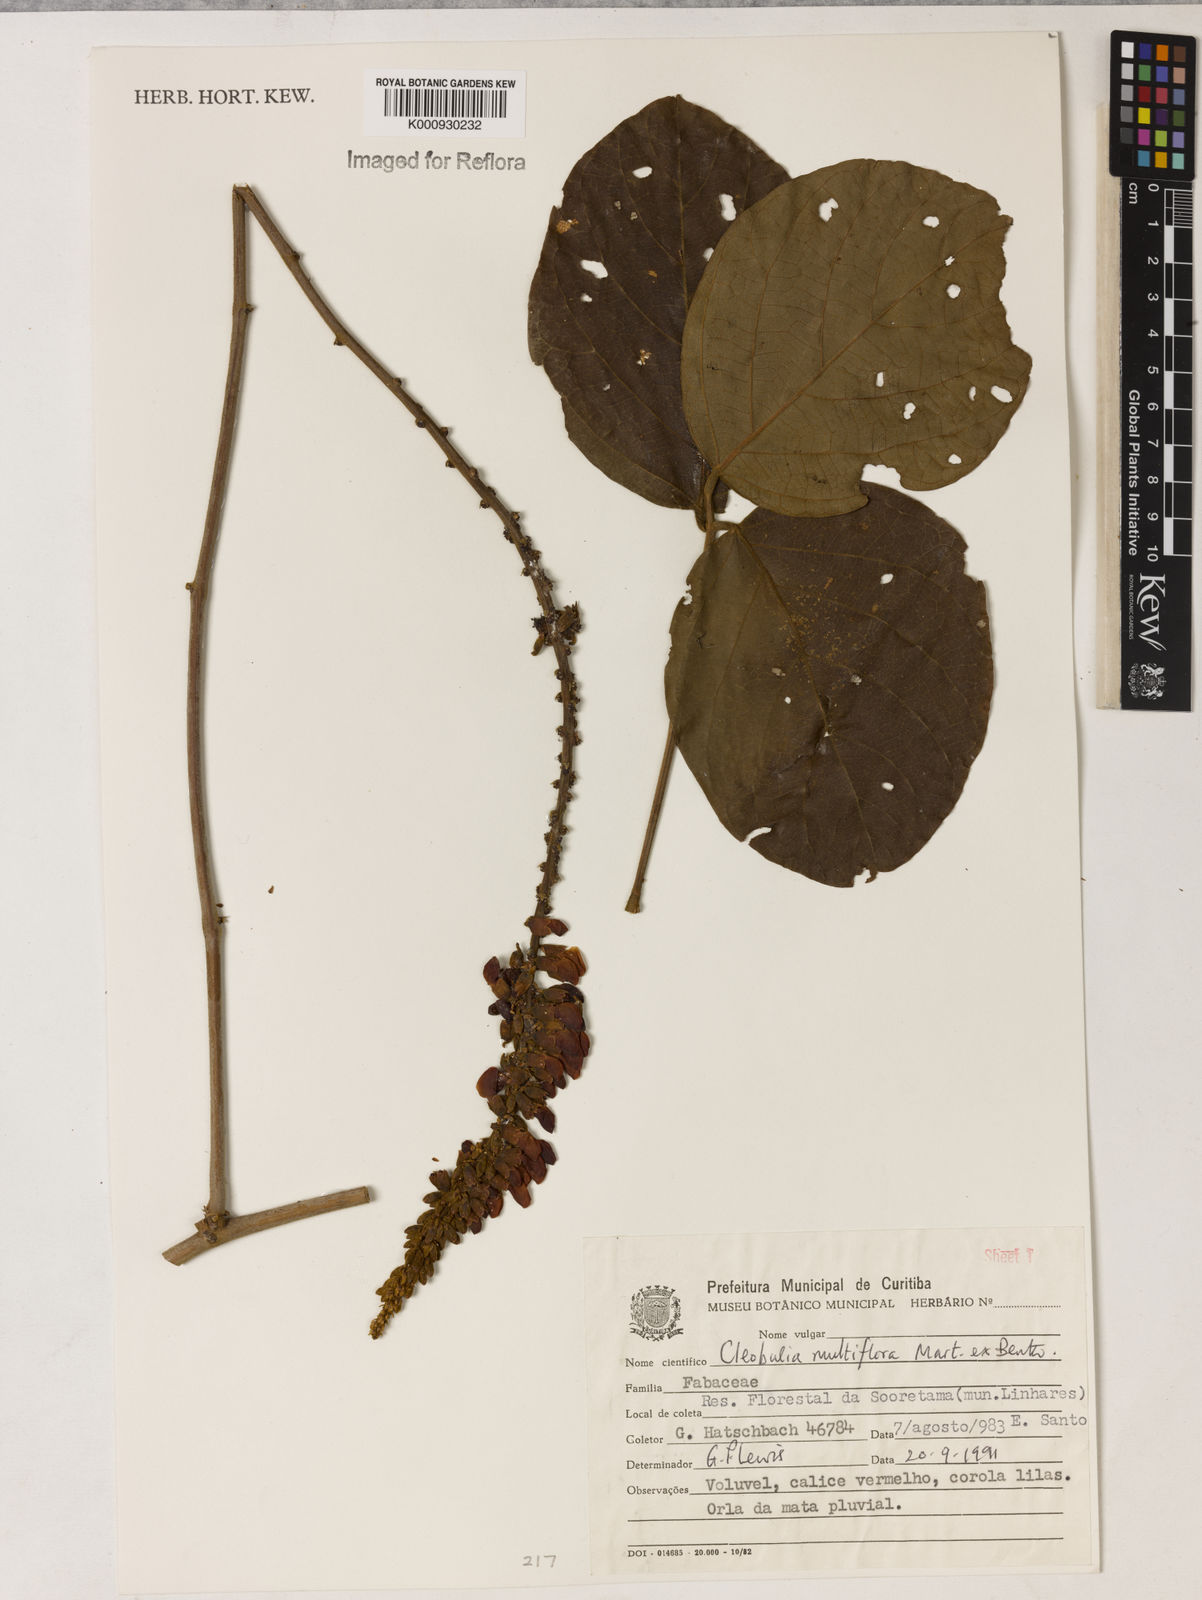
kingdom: Plantae
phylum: Tracheophyta
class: Magnoliopsida
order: Fabales
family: Fabaceae
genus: Cleobulia
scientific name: Cleobulia coccinea
